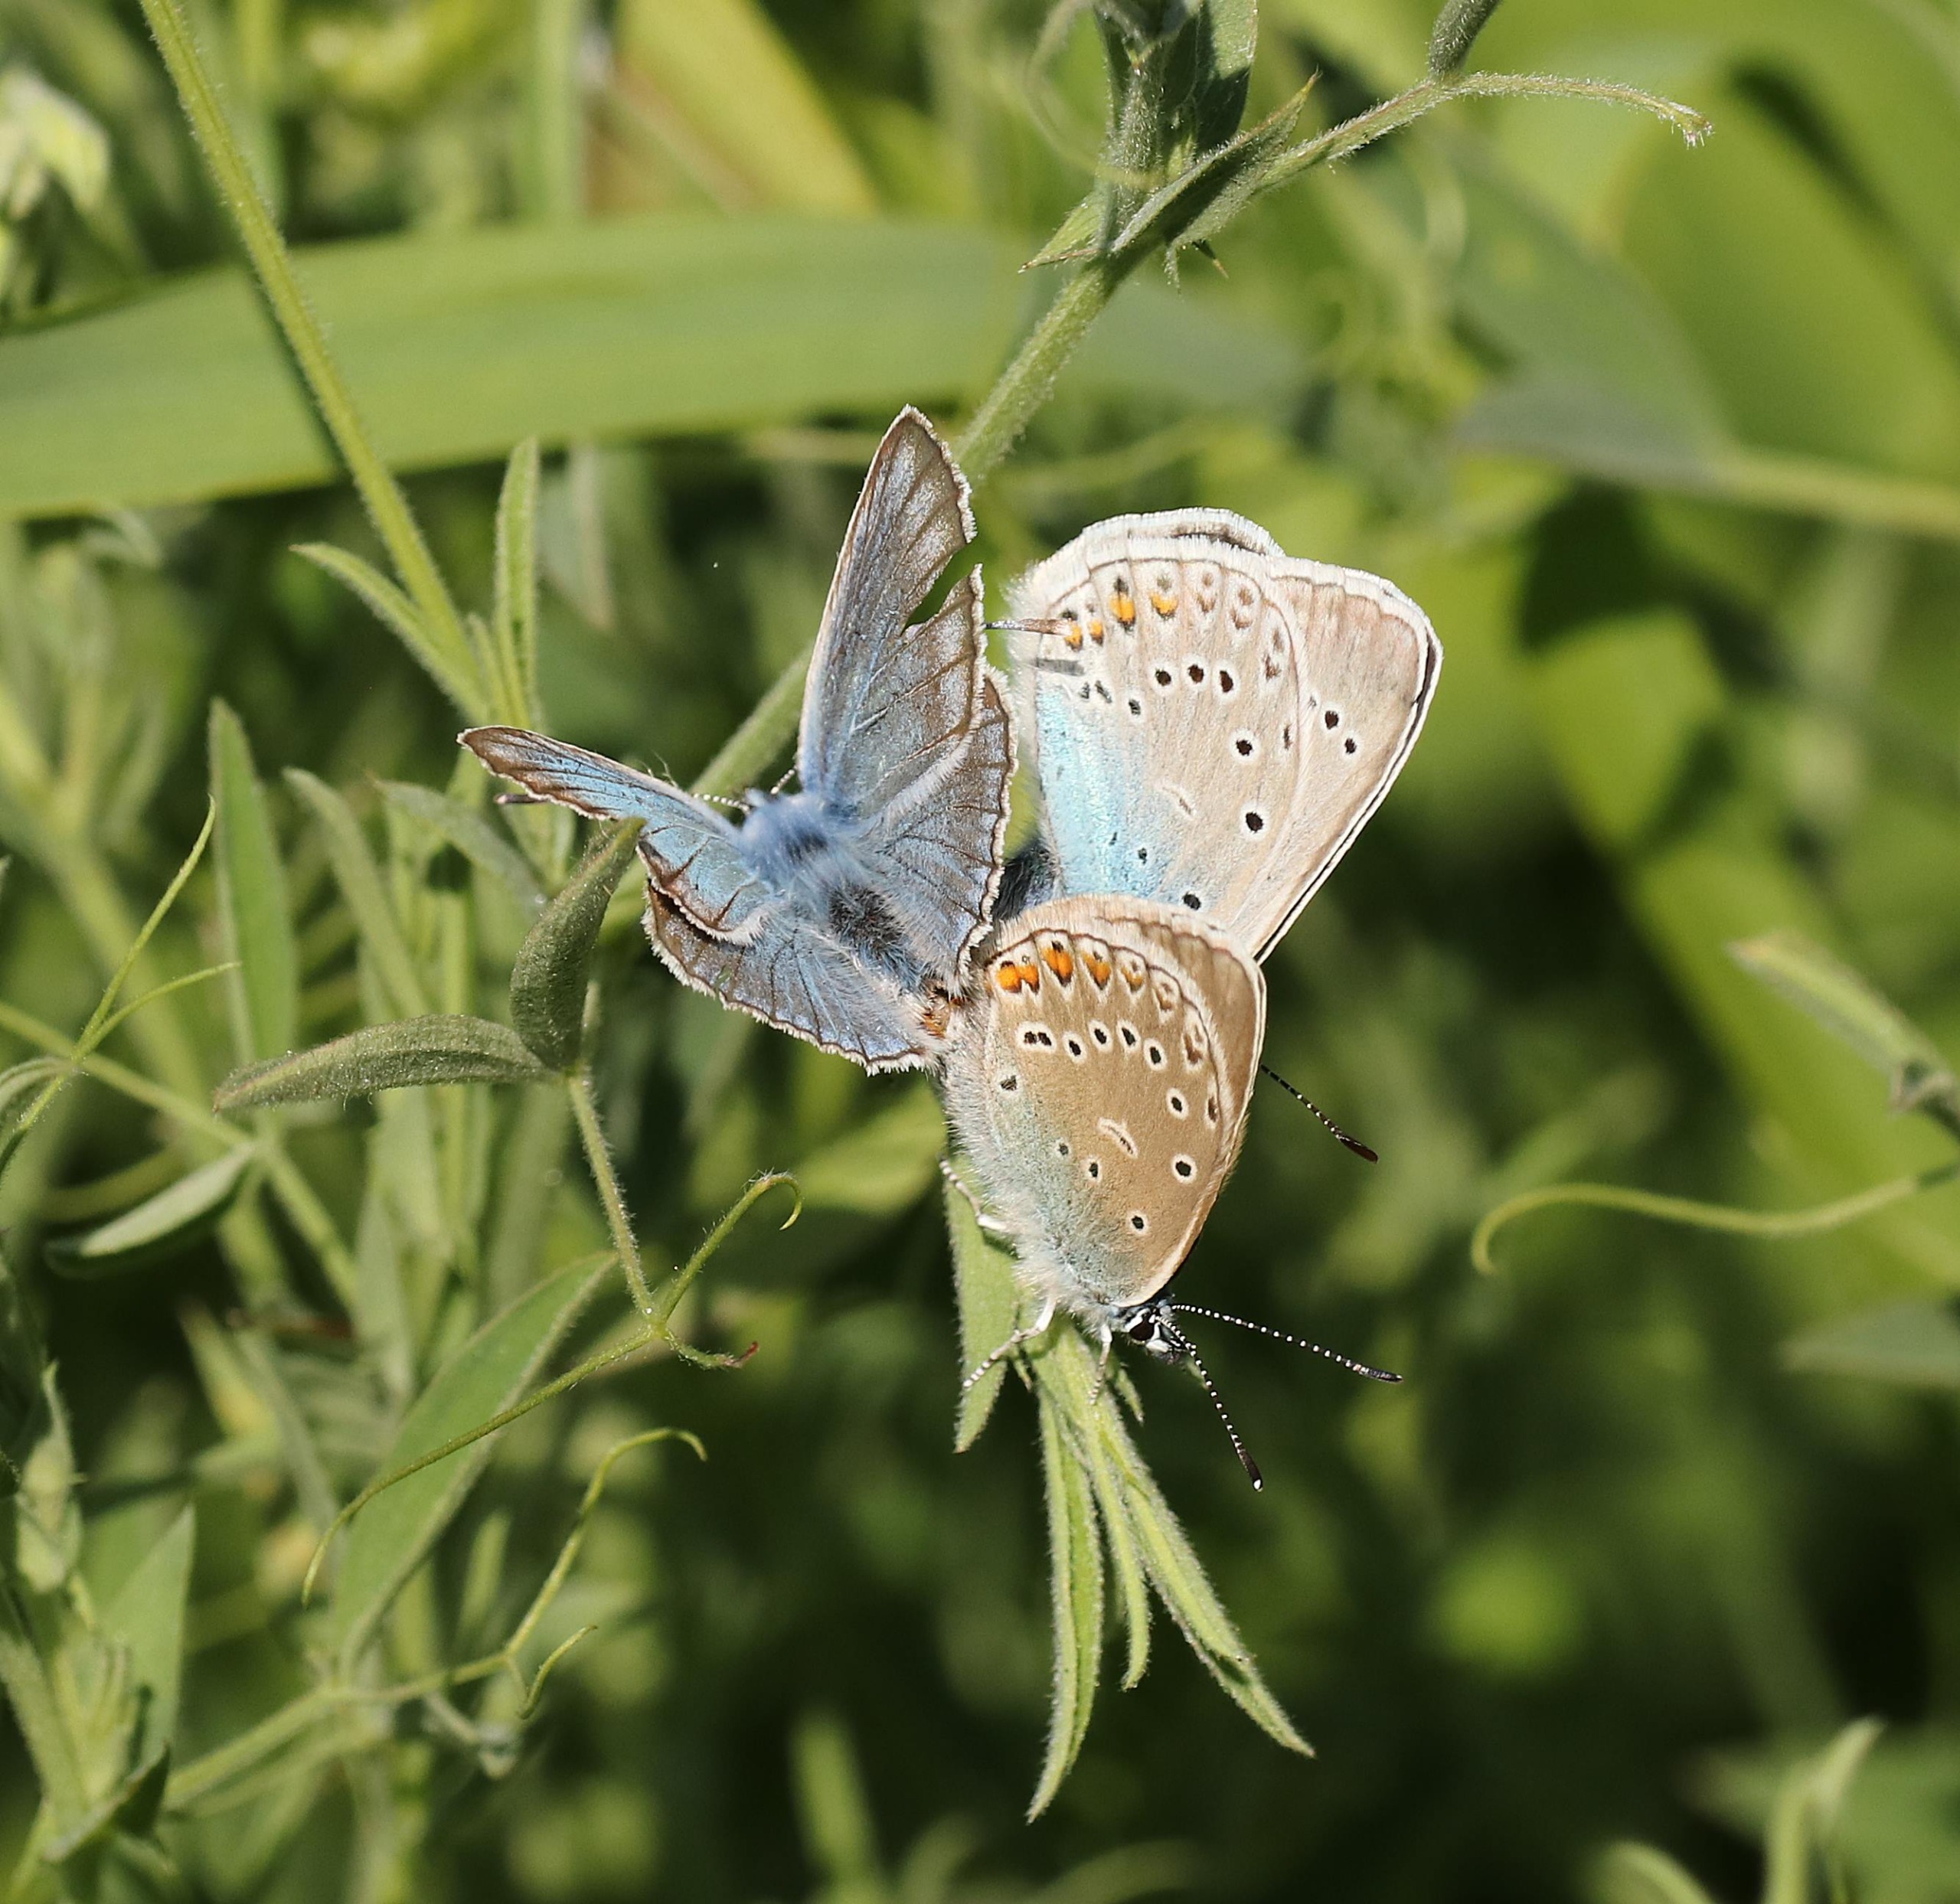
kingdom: Animalia
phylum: Arthropoda
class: Insecta
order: Lepidoptera
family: Lycaenidae
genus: Plebejus
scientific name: Plebejus amanda
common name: Isblåfugl
